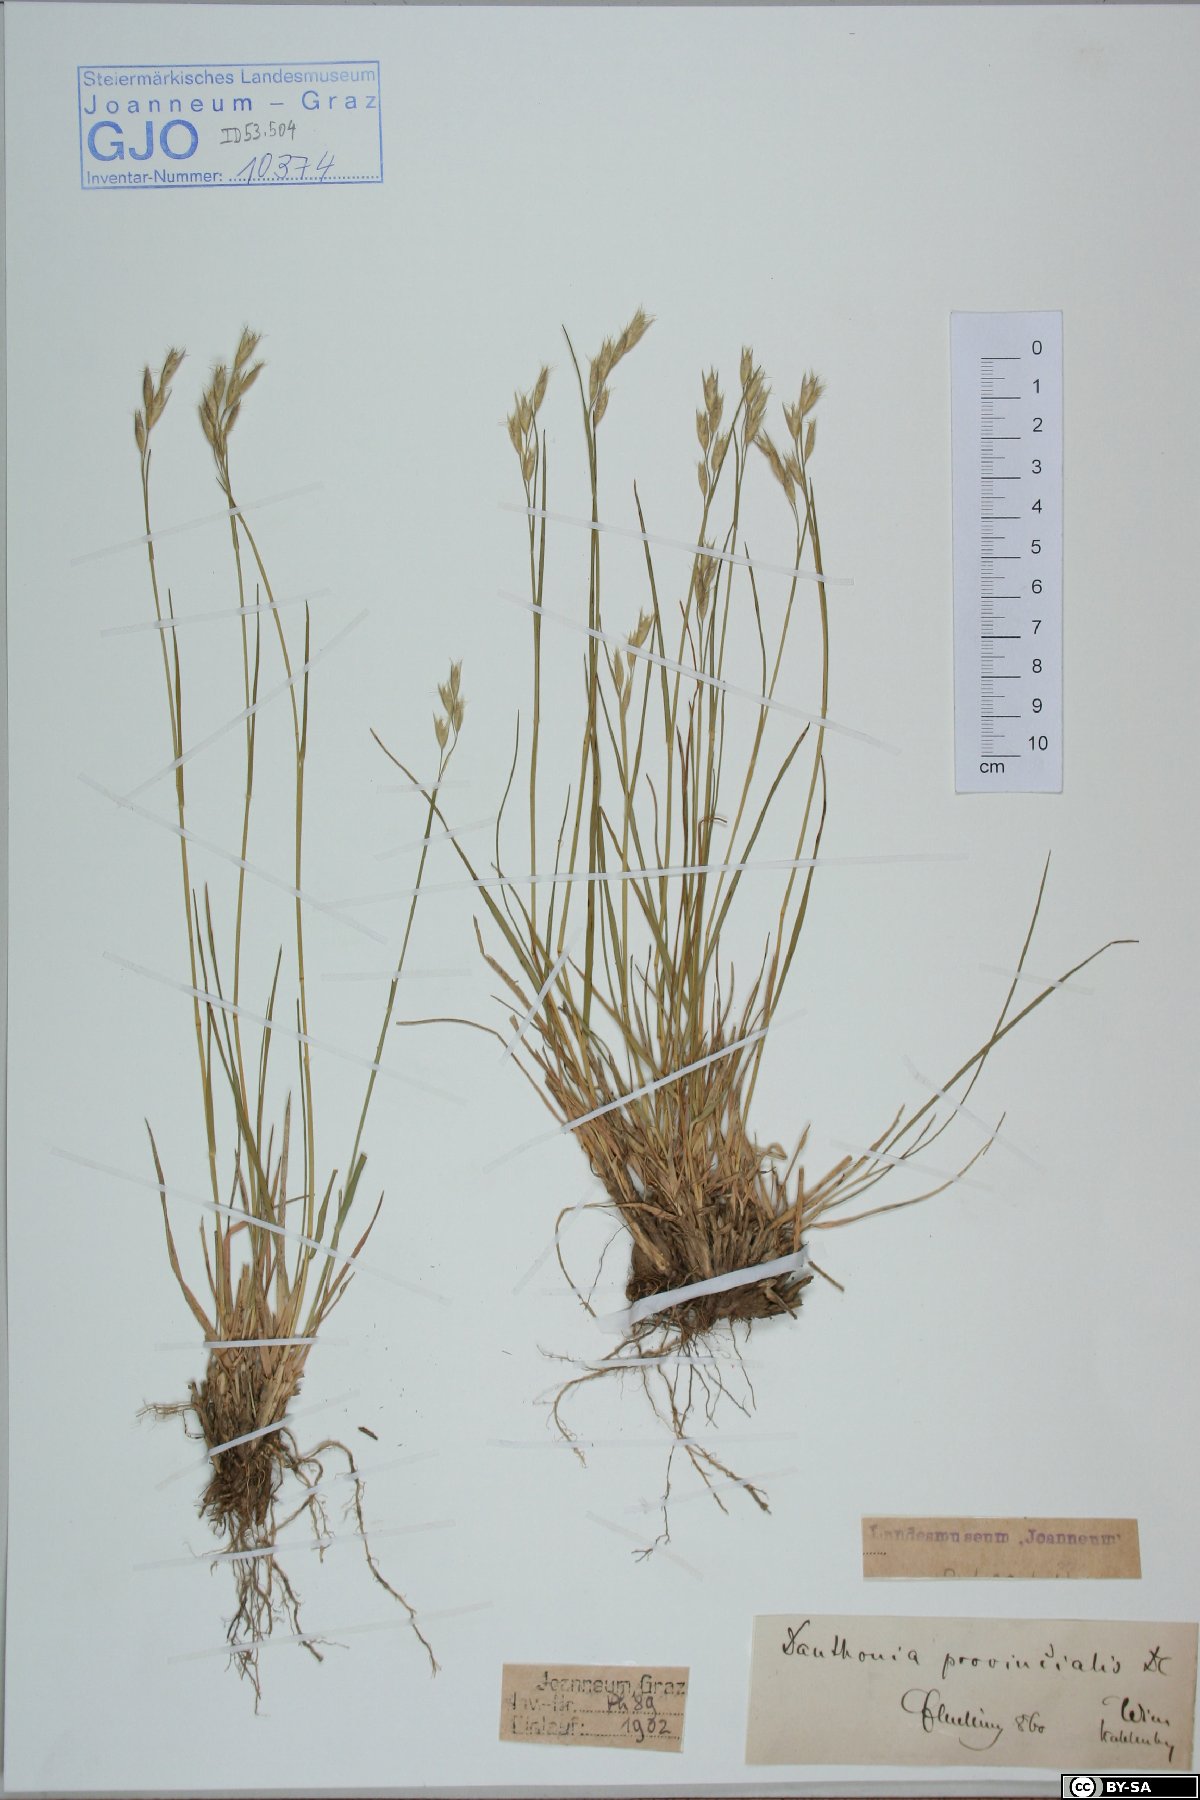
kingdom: Plantae
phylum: Tracheophyta
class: Liliopsida
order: Poales
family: Poaceae
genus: Danthonia
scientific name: Danthonia alpina
